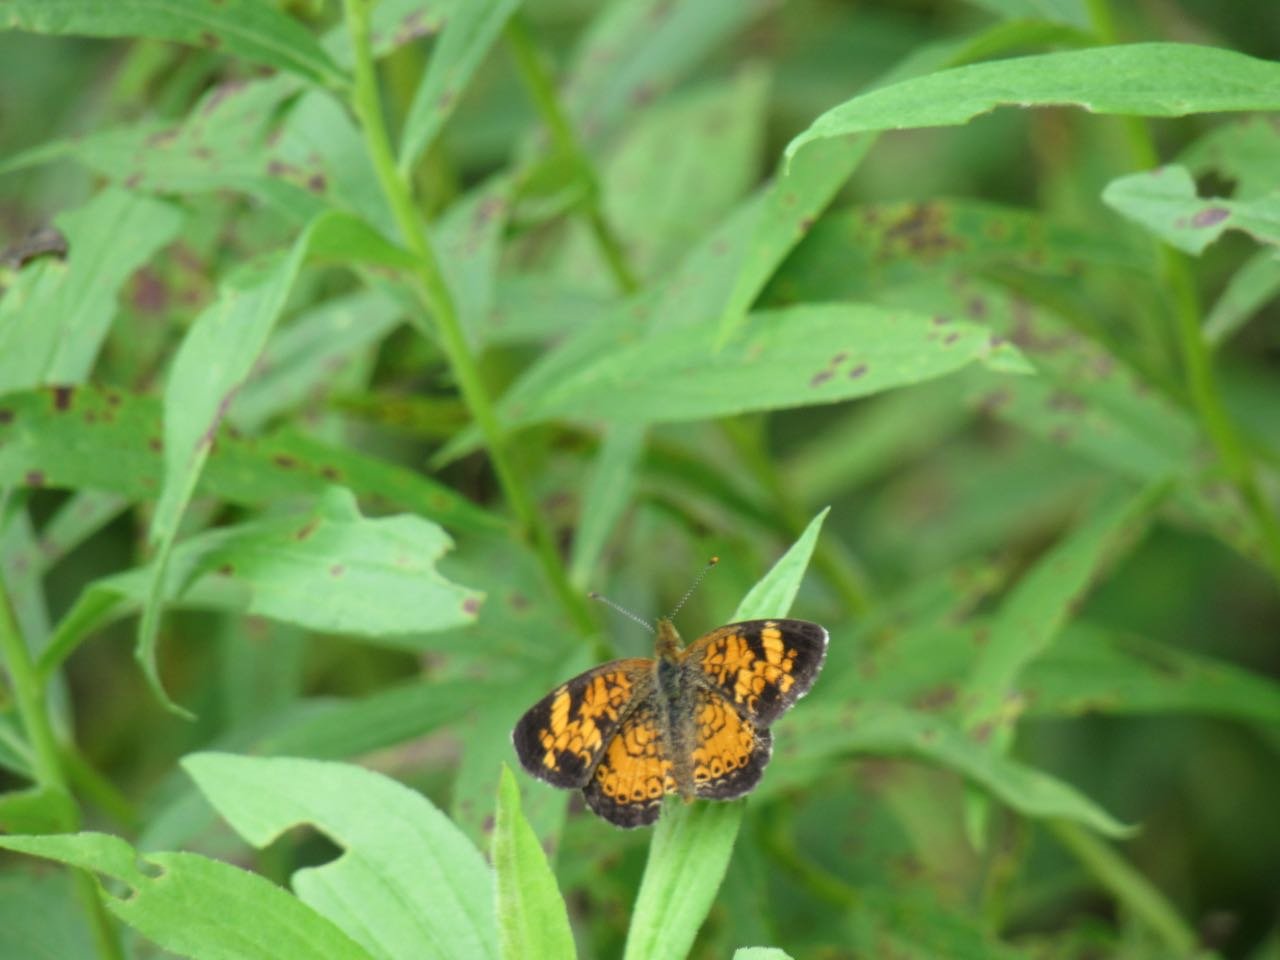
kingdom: Animalia
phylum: Arthropoda
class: Insecta
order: Lepidoptera
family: Nymphalidae
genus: Phyciodes
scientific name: Phyciodes tharos
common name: Pearl Crescent
